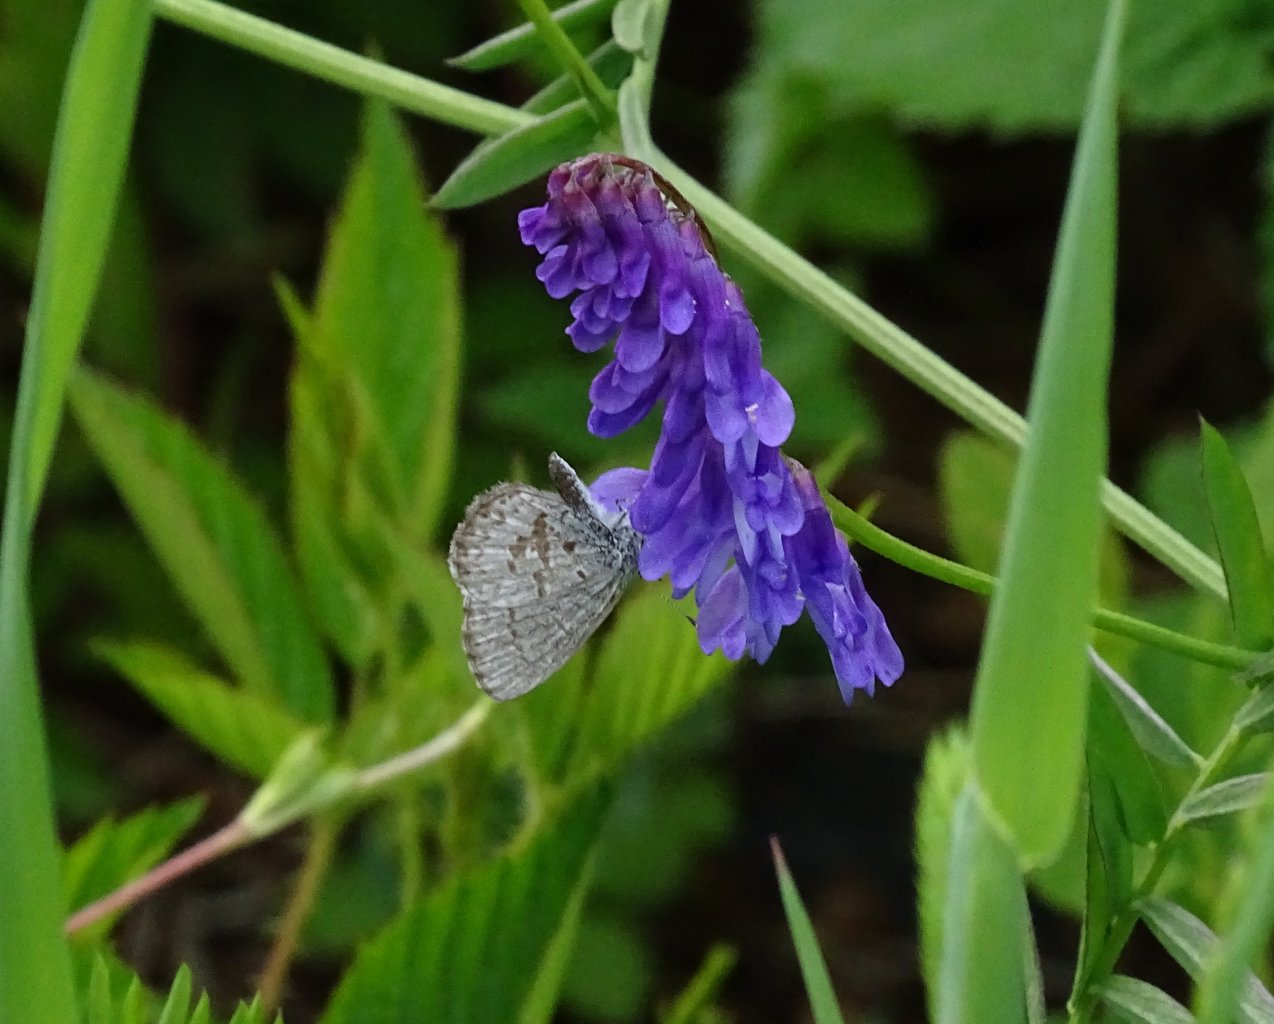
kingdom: Animalia
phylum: Arthropoda
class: Insecta
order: Lepidoptera
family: Lycaenidae
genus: Cyaniris
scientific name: Cyaniris neglecta
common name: Summer Azure
